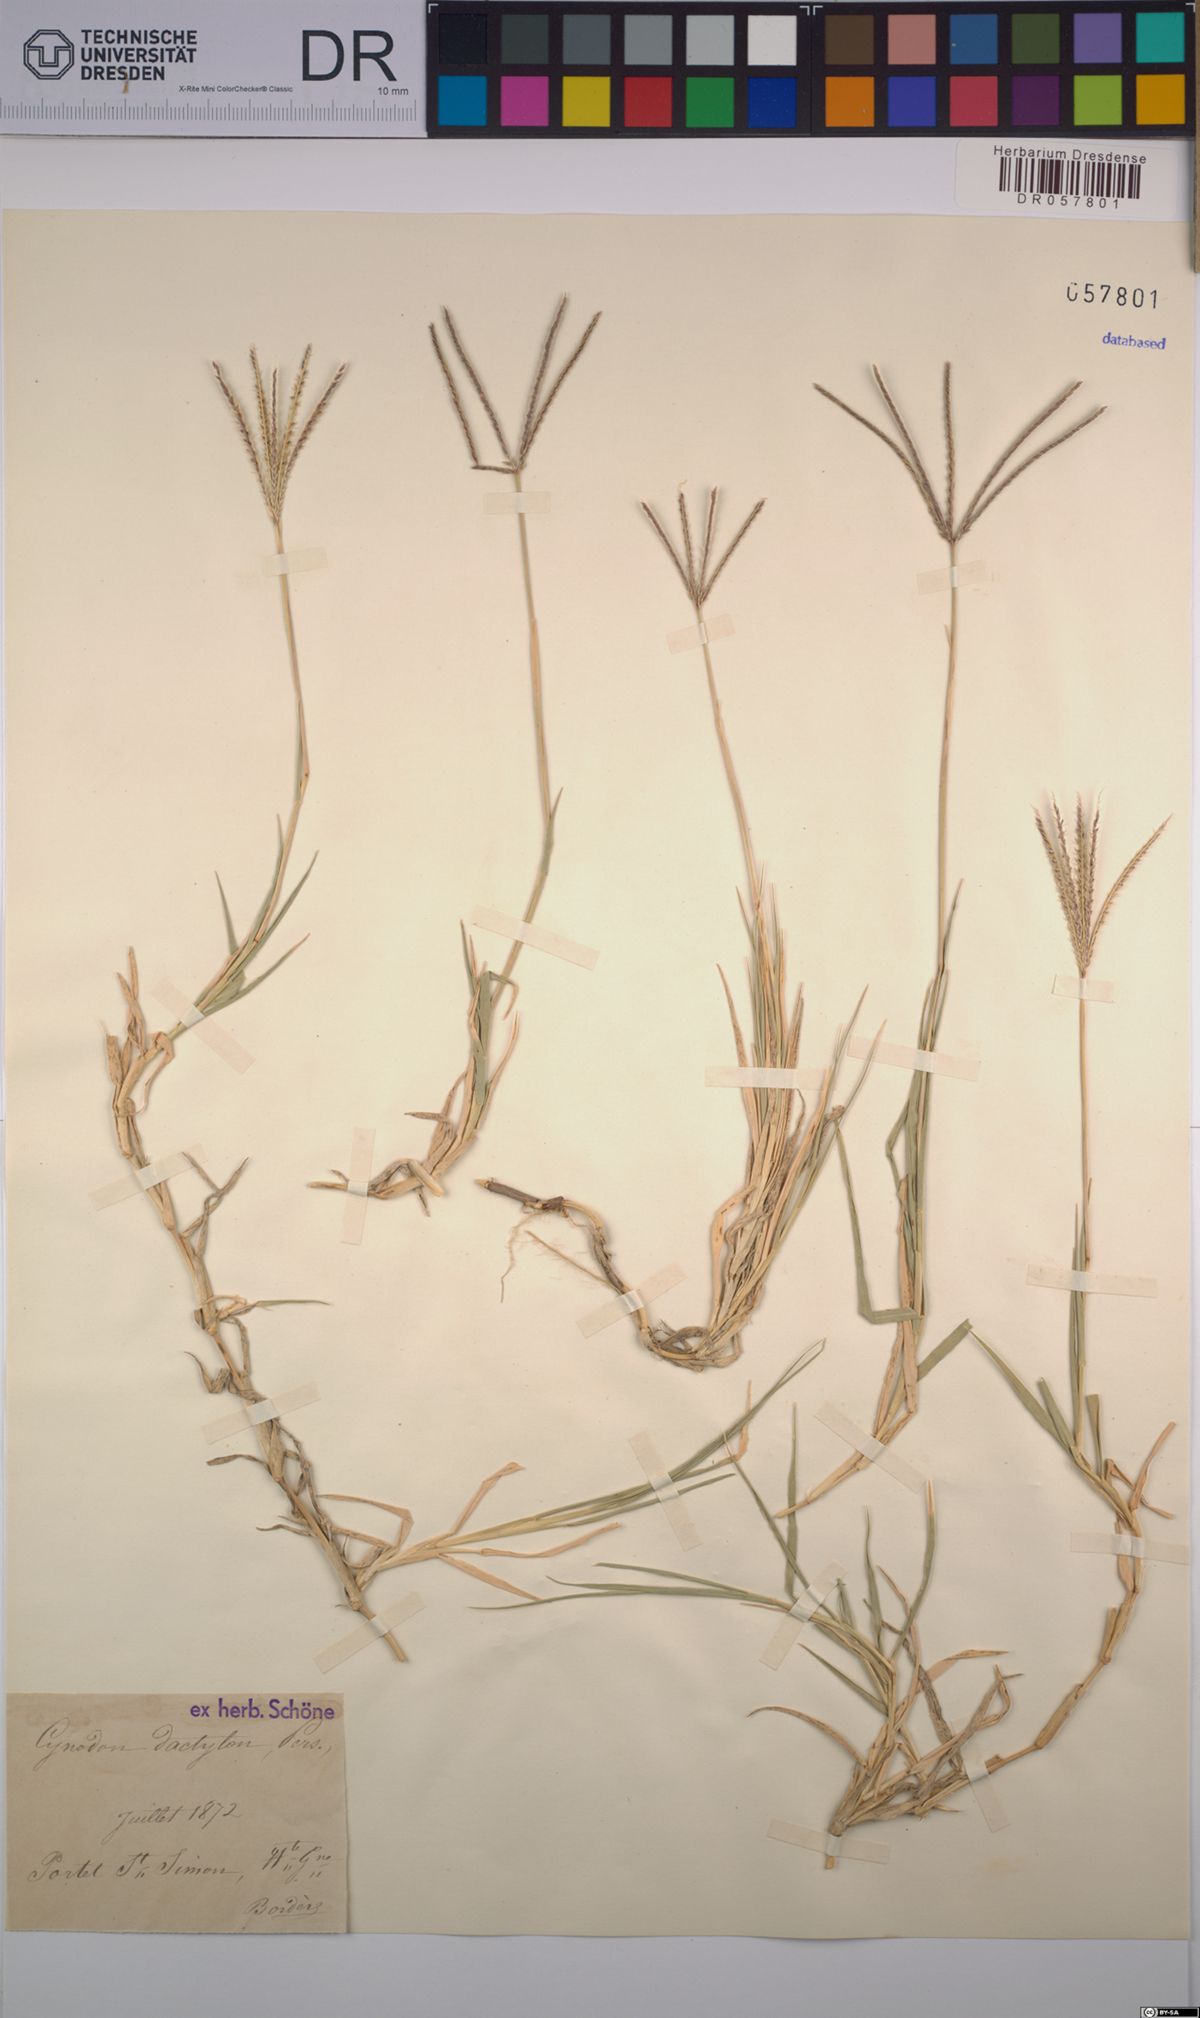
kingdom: Plantae
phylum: Tracheophyta
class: Liliopsida
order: Poales
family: Poaceae
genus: Cynodon
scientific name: Cynodon dactylon
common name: Bermuda grass
